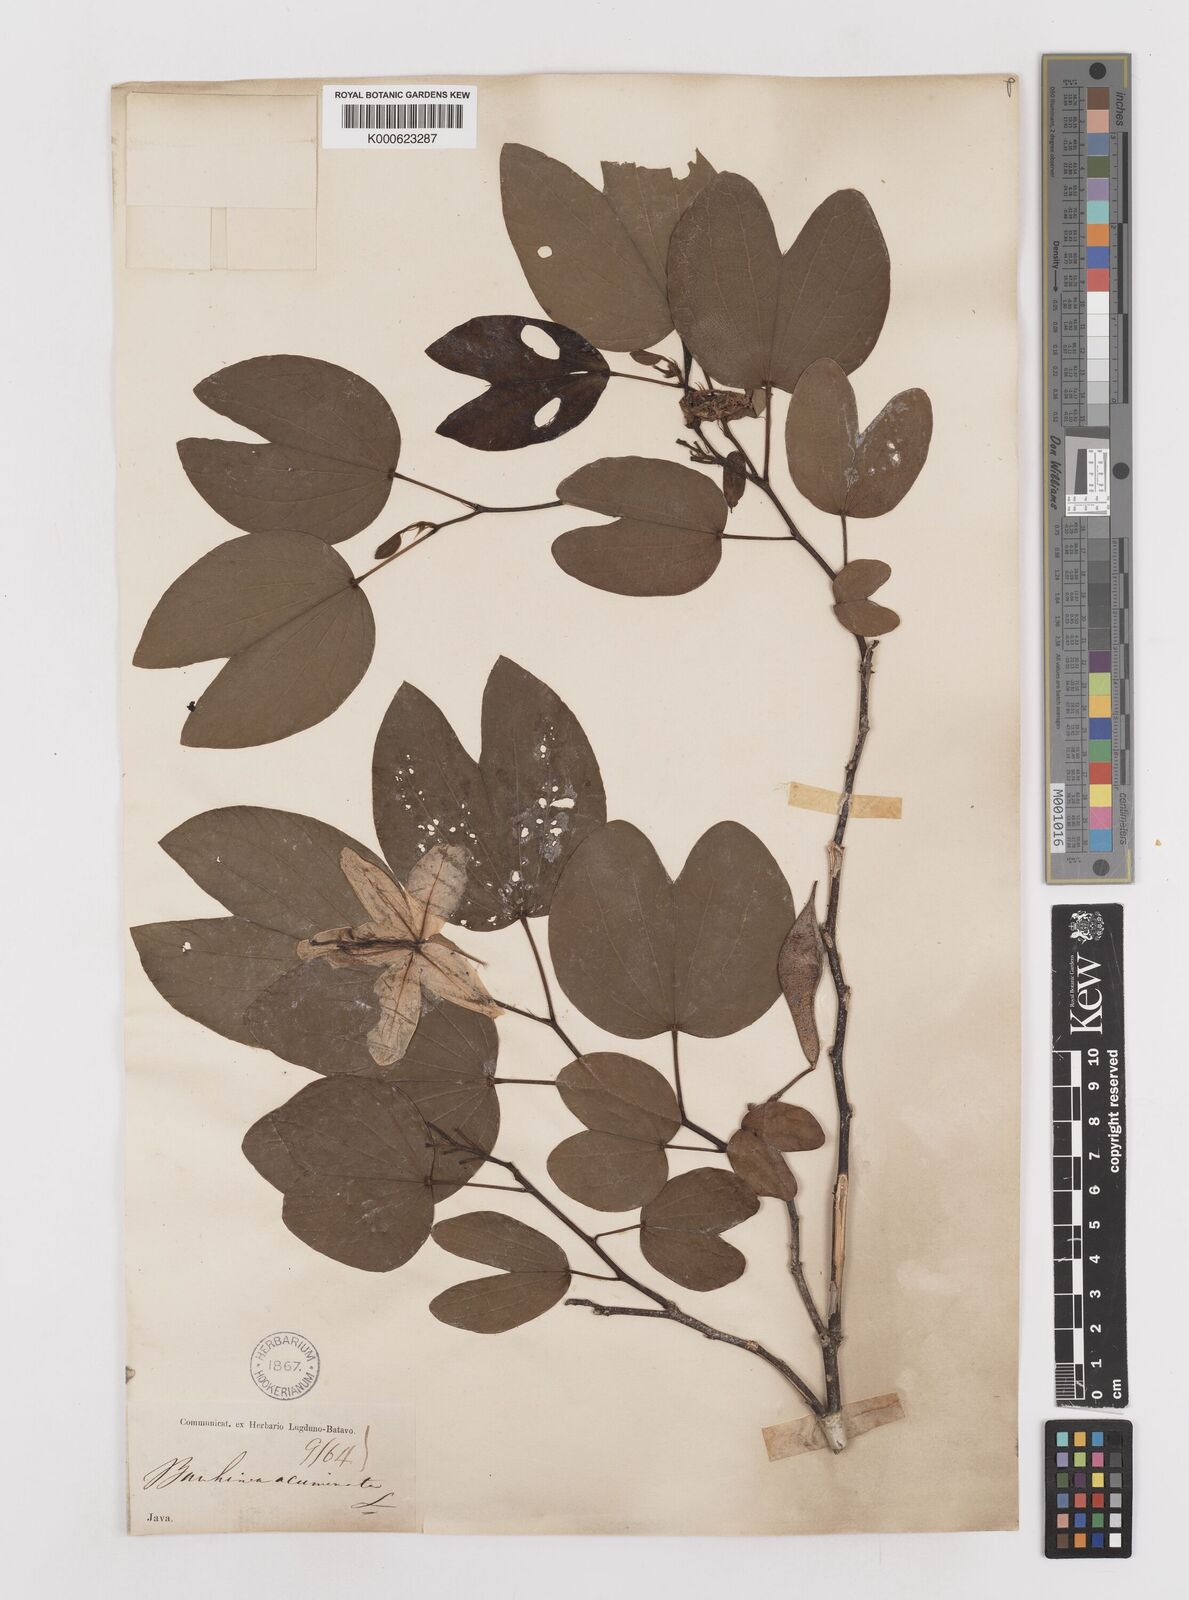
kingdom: Plantae
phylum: Tracheophyta
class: Magnoliopsida
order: Fabales
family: Fabaceae
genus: Bauhinia
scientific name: Bauhinia acuminata
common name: Dwarf white bauhinia
